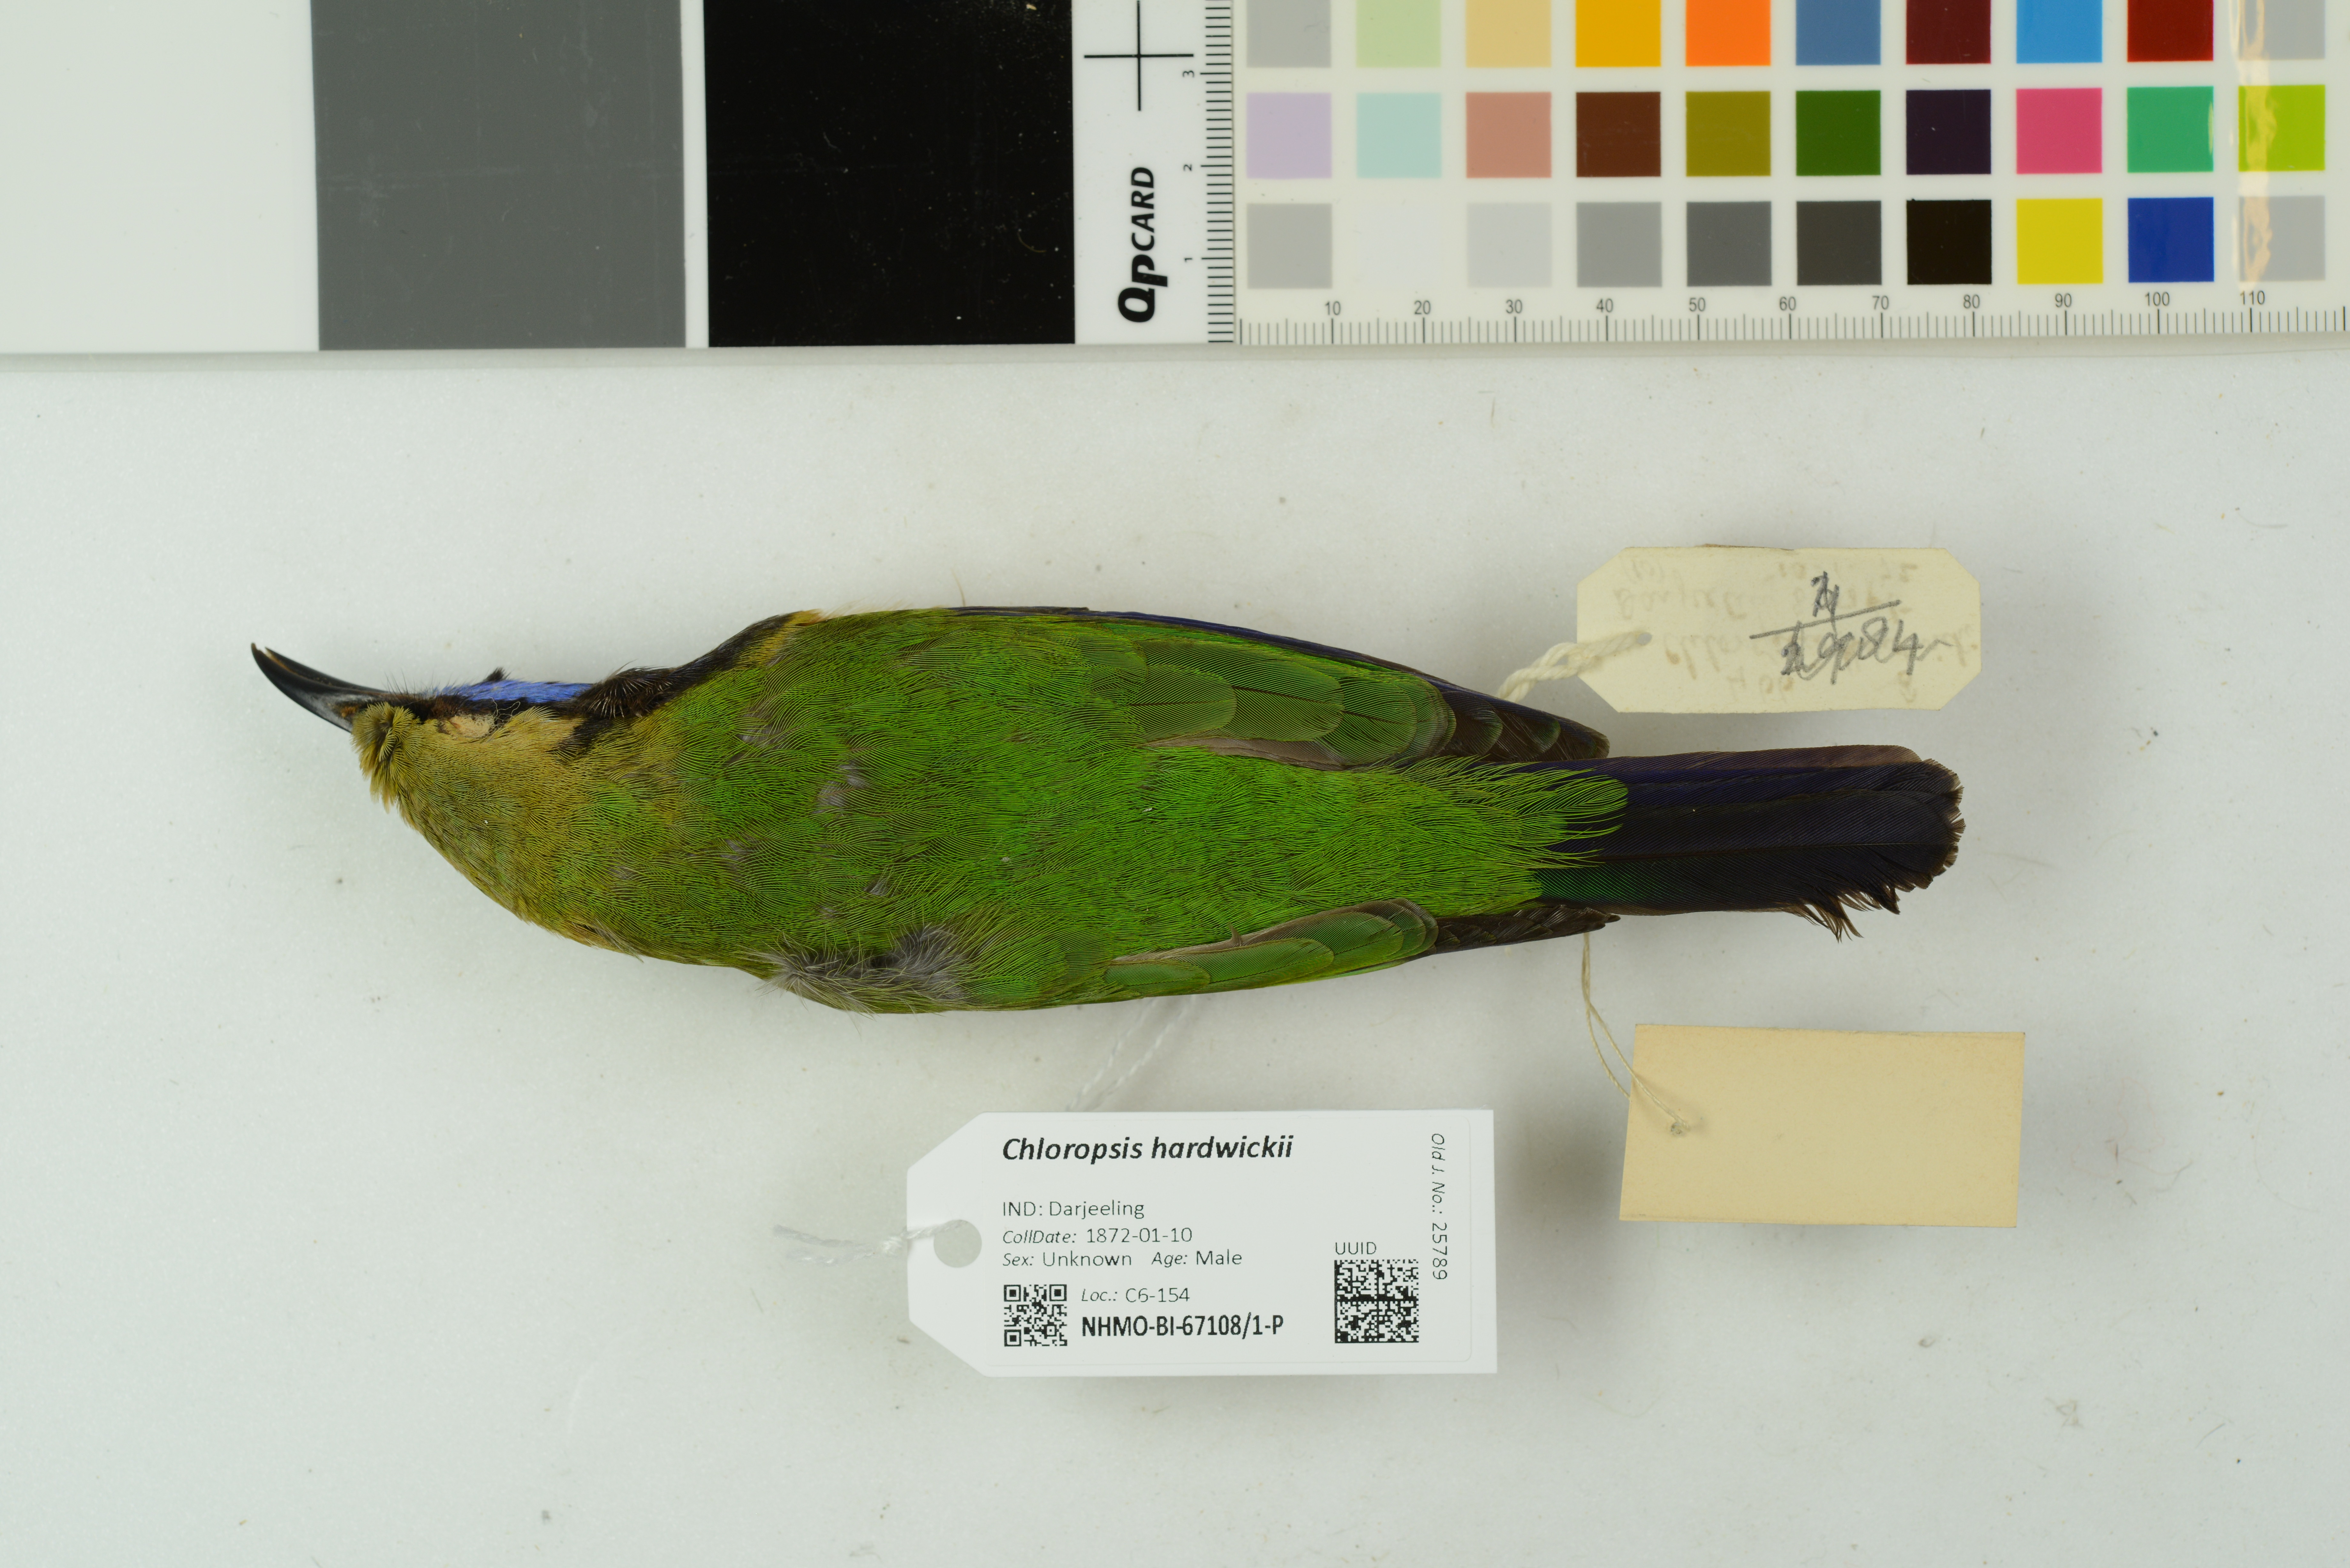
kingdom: Animalia
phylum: Chordata
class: Aves
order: Passeriformes
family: Chloropseidae
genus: Chloropsis
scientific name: Chloropsis hardwickii
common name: Orange-bellied leafbird
